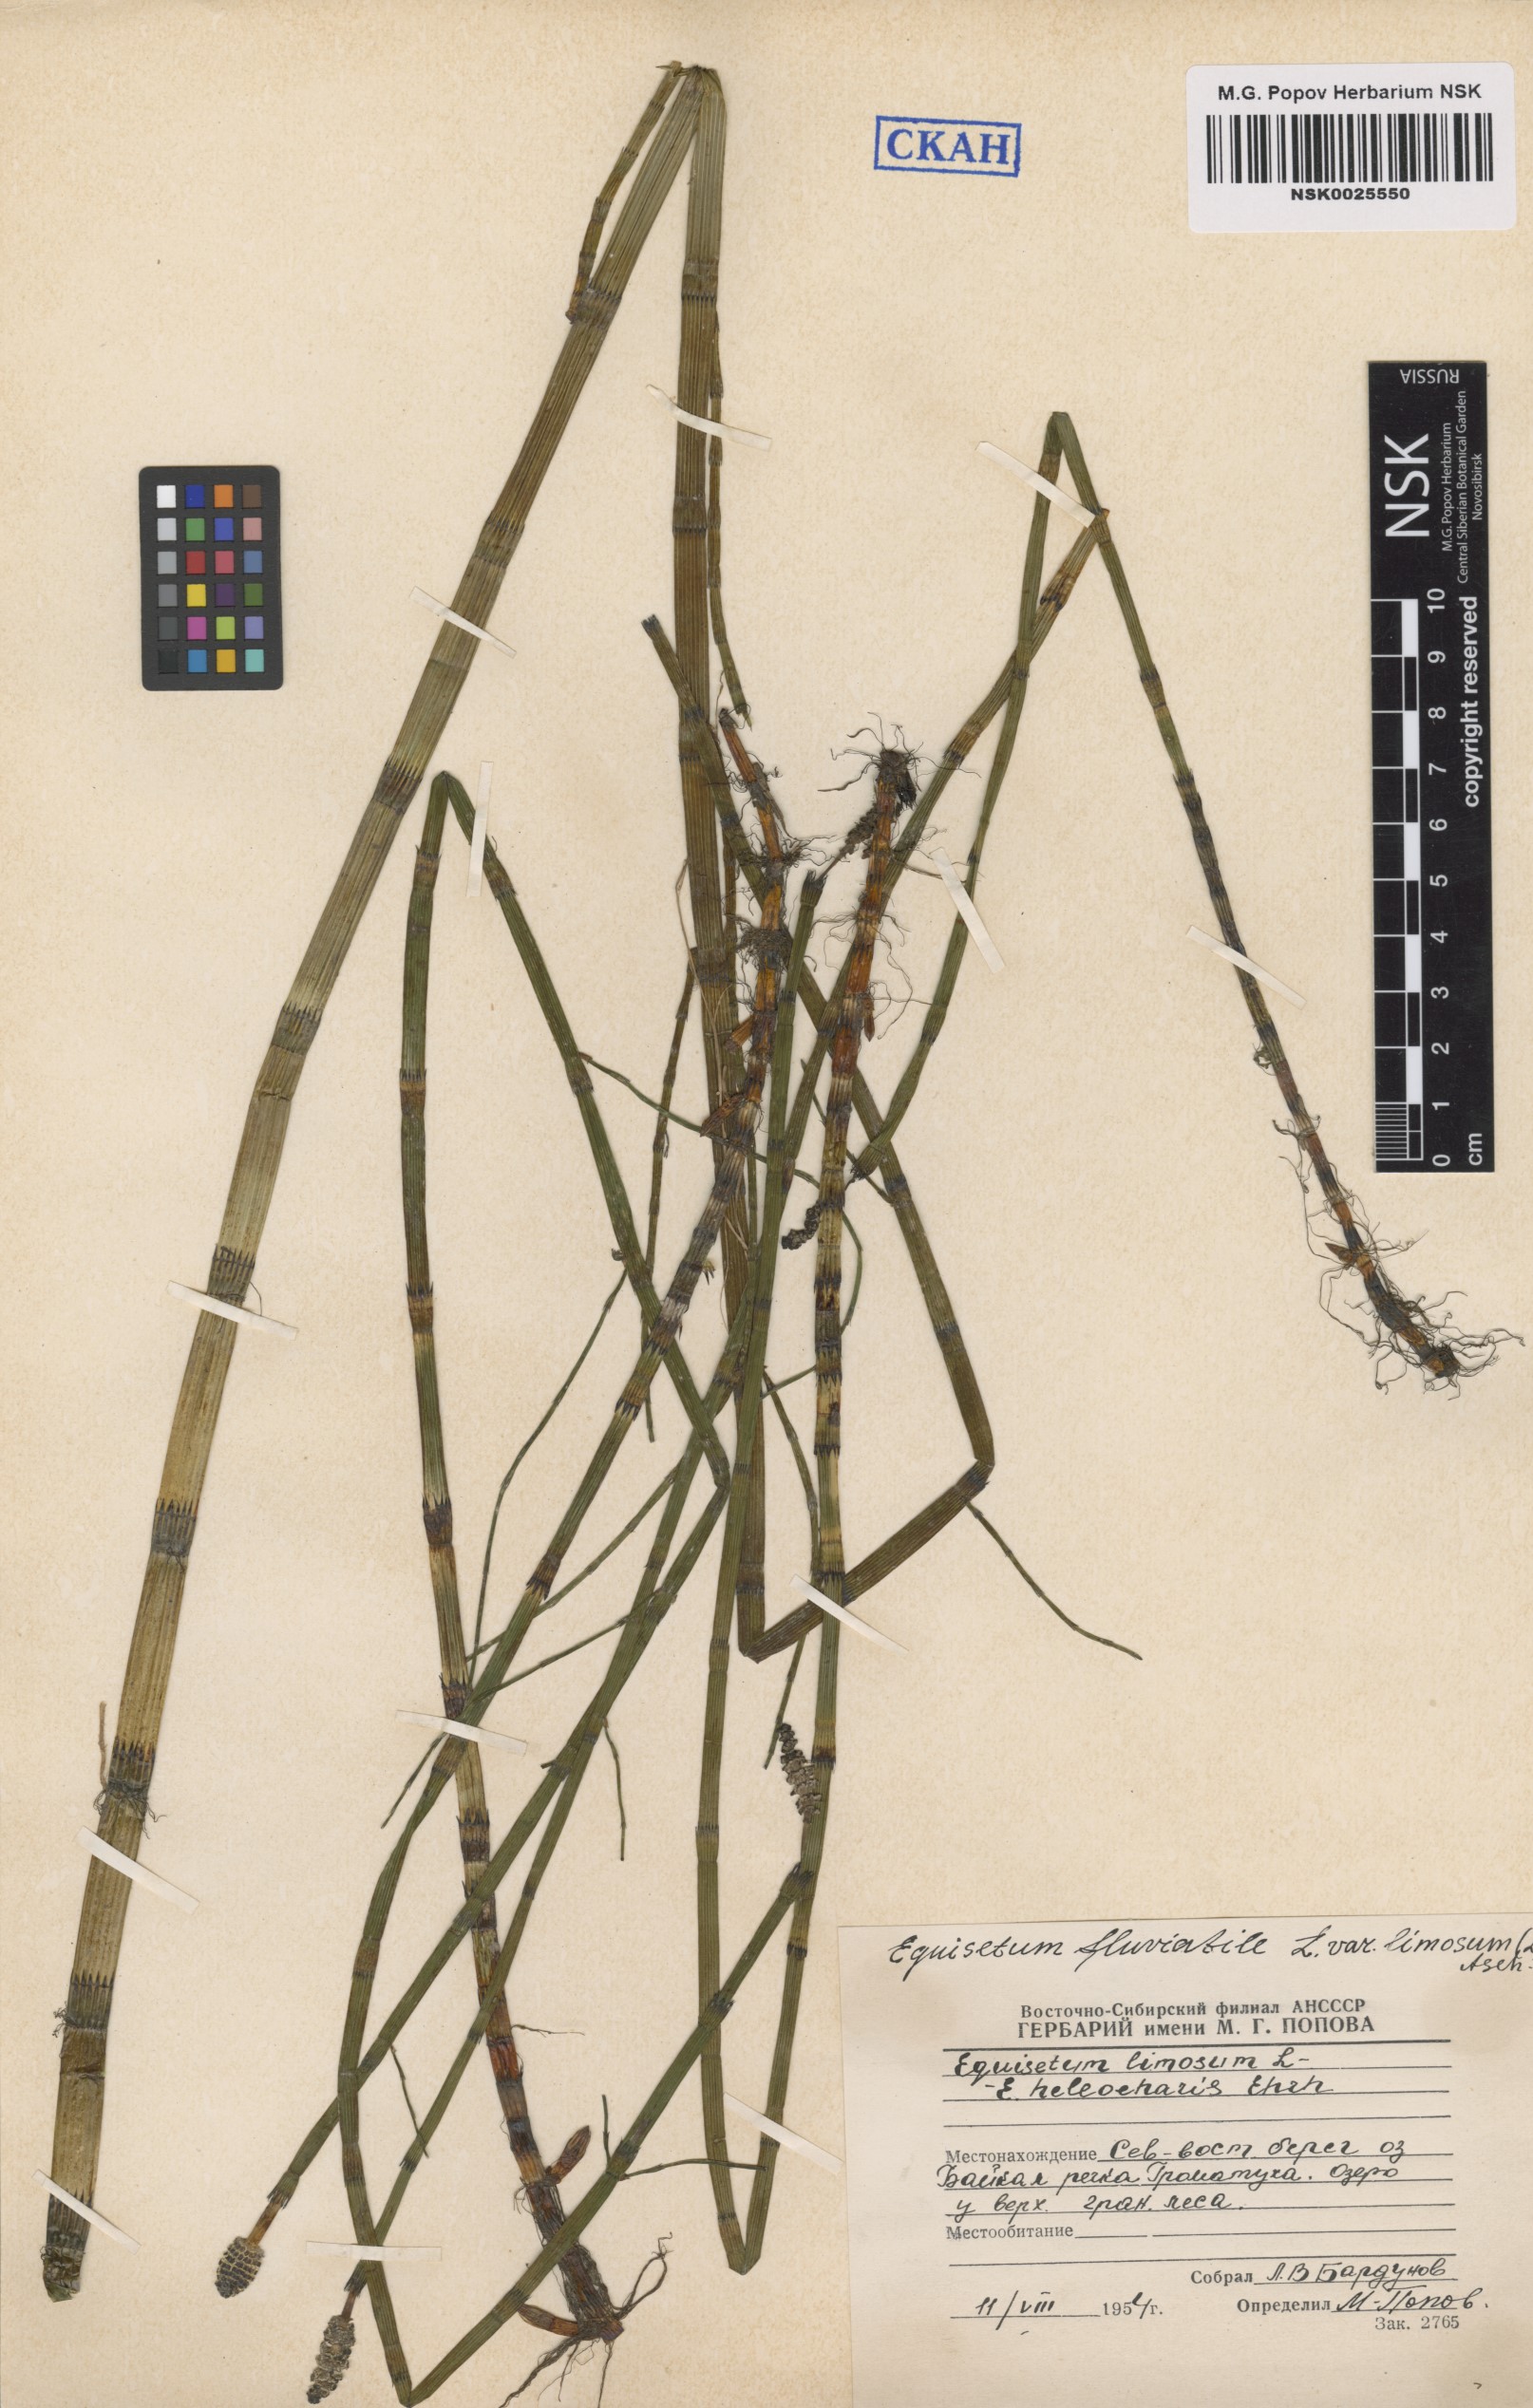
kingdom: Plantae
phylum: Tracheophyta
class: Polypodiopsida
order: Equisetales
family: Equisetaceae
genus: Equisetum
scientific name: Equisetum fluviatile
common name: Water horsetail
